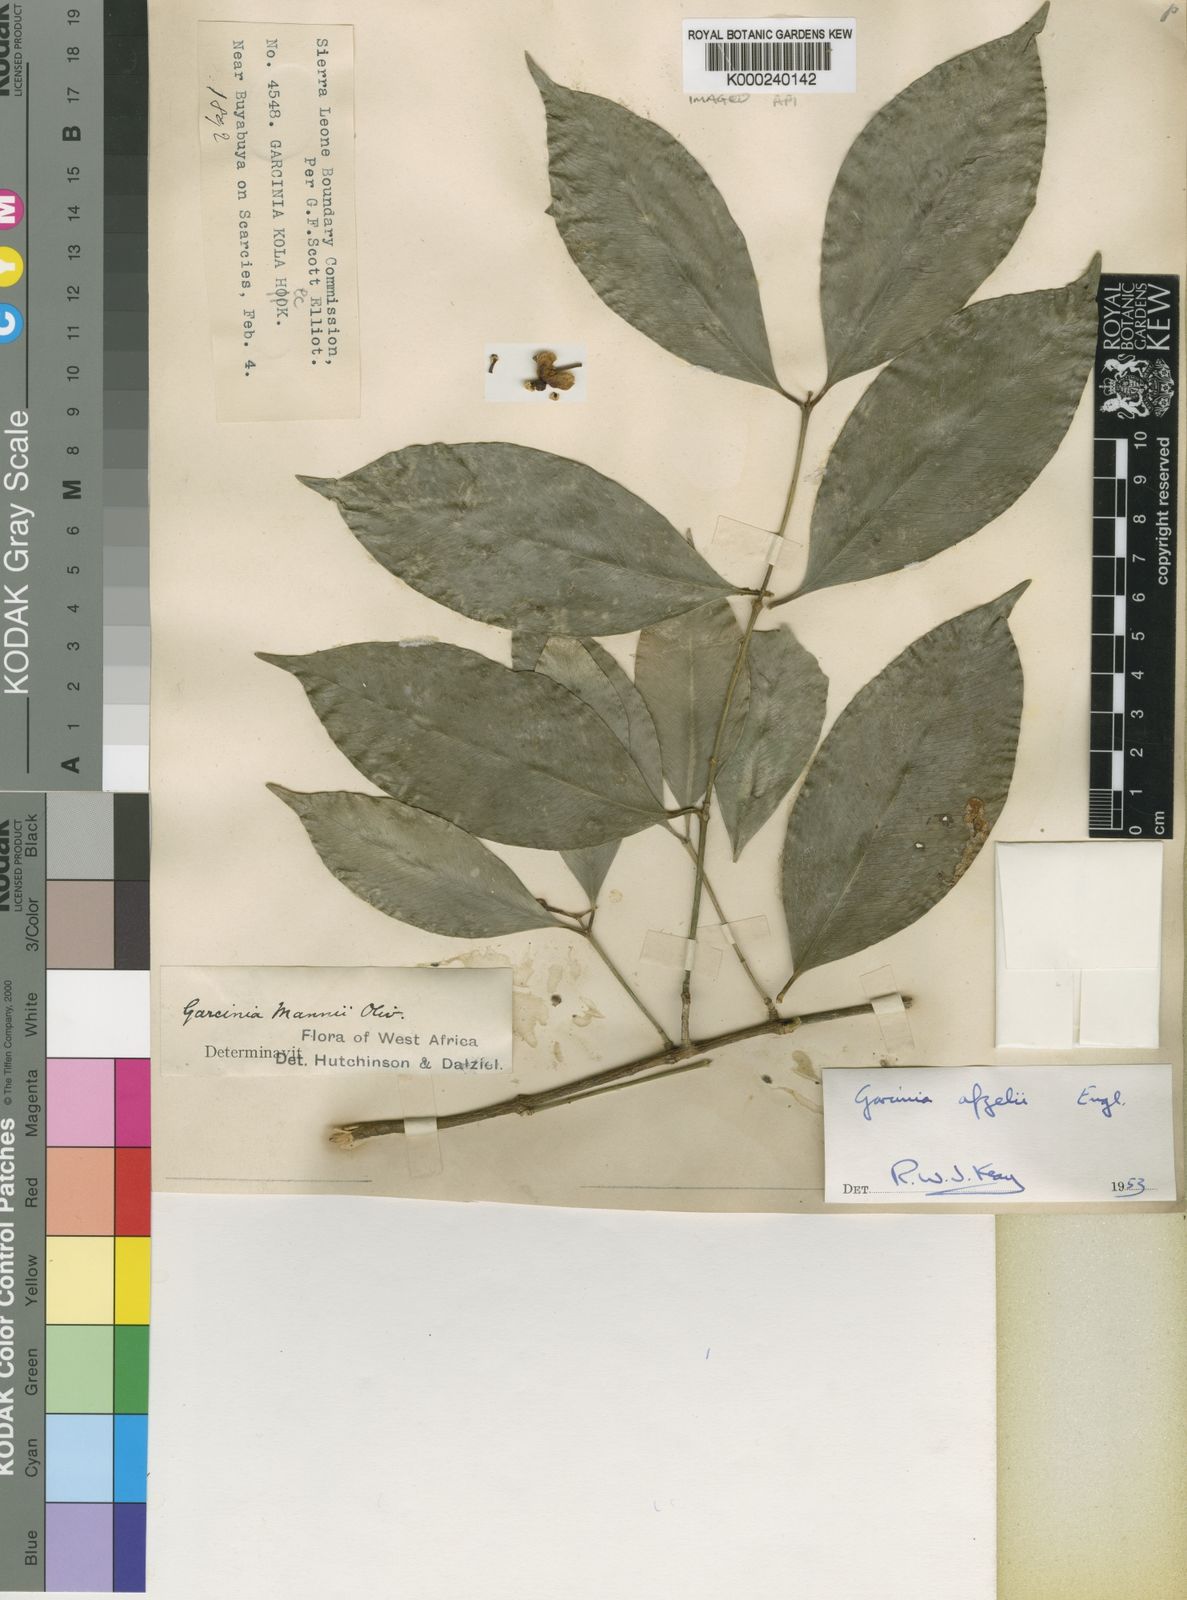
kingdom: Plantae
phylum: Tracheophyta
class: Magnoliopsida
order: Malpighiales
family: Clusiaceae
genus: Garcinia
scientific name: Garcinia afzelii
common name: Bitter-kola
